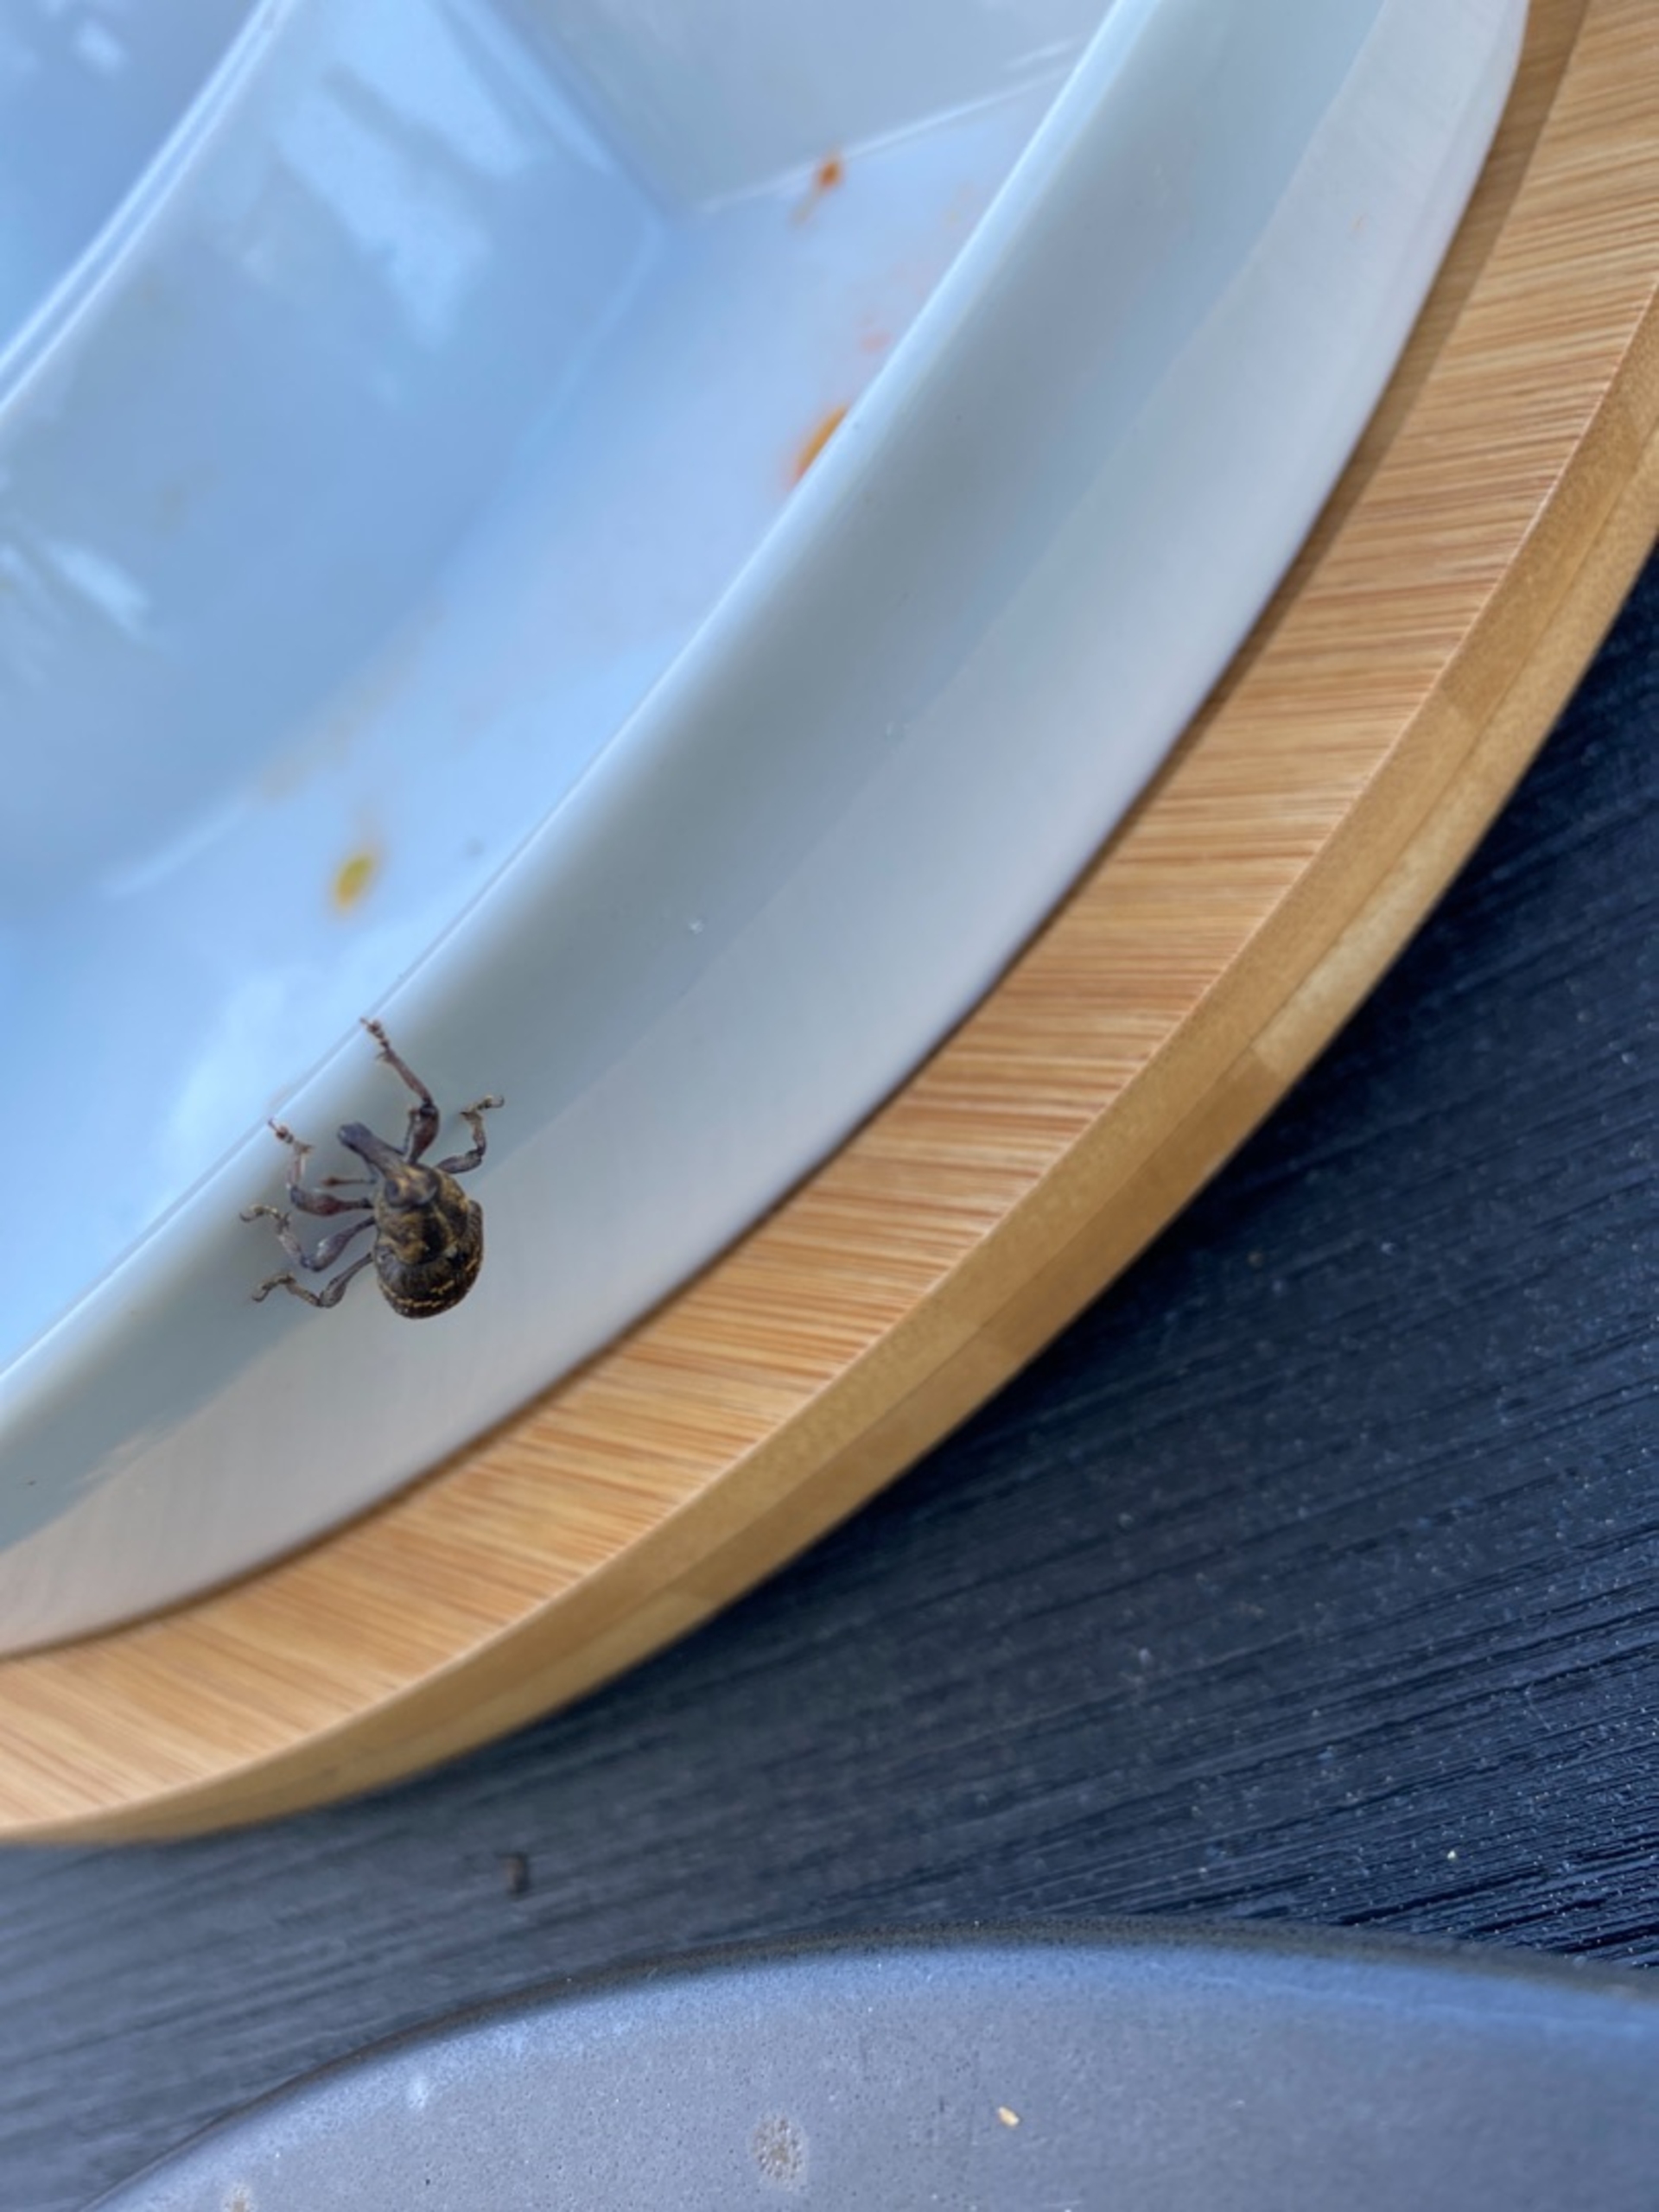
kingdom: Animalia
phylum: Arthropoda
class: Insecta
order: Coleoptera
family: Curculionidae
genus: Hylobius
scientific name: Hylobius abietis
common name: Stor nåletræsnudebille
